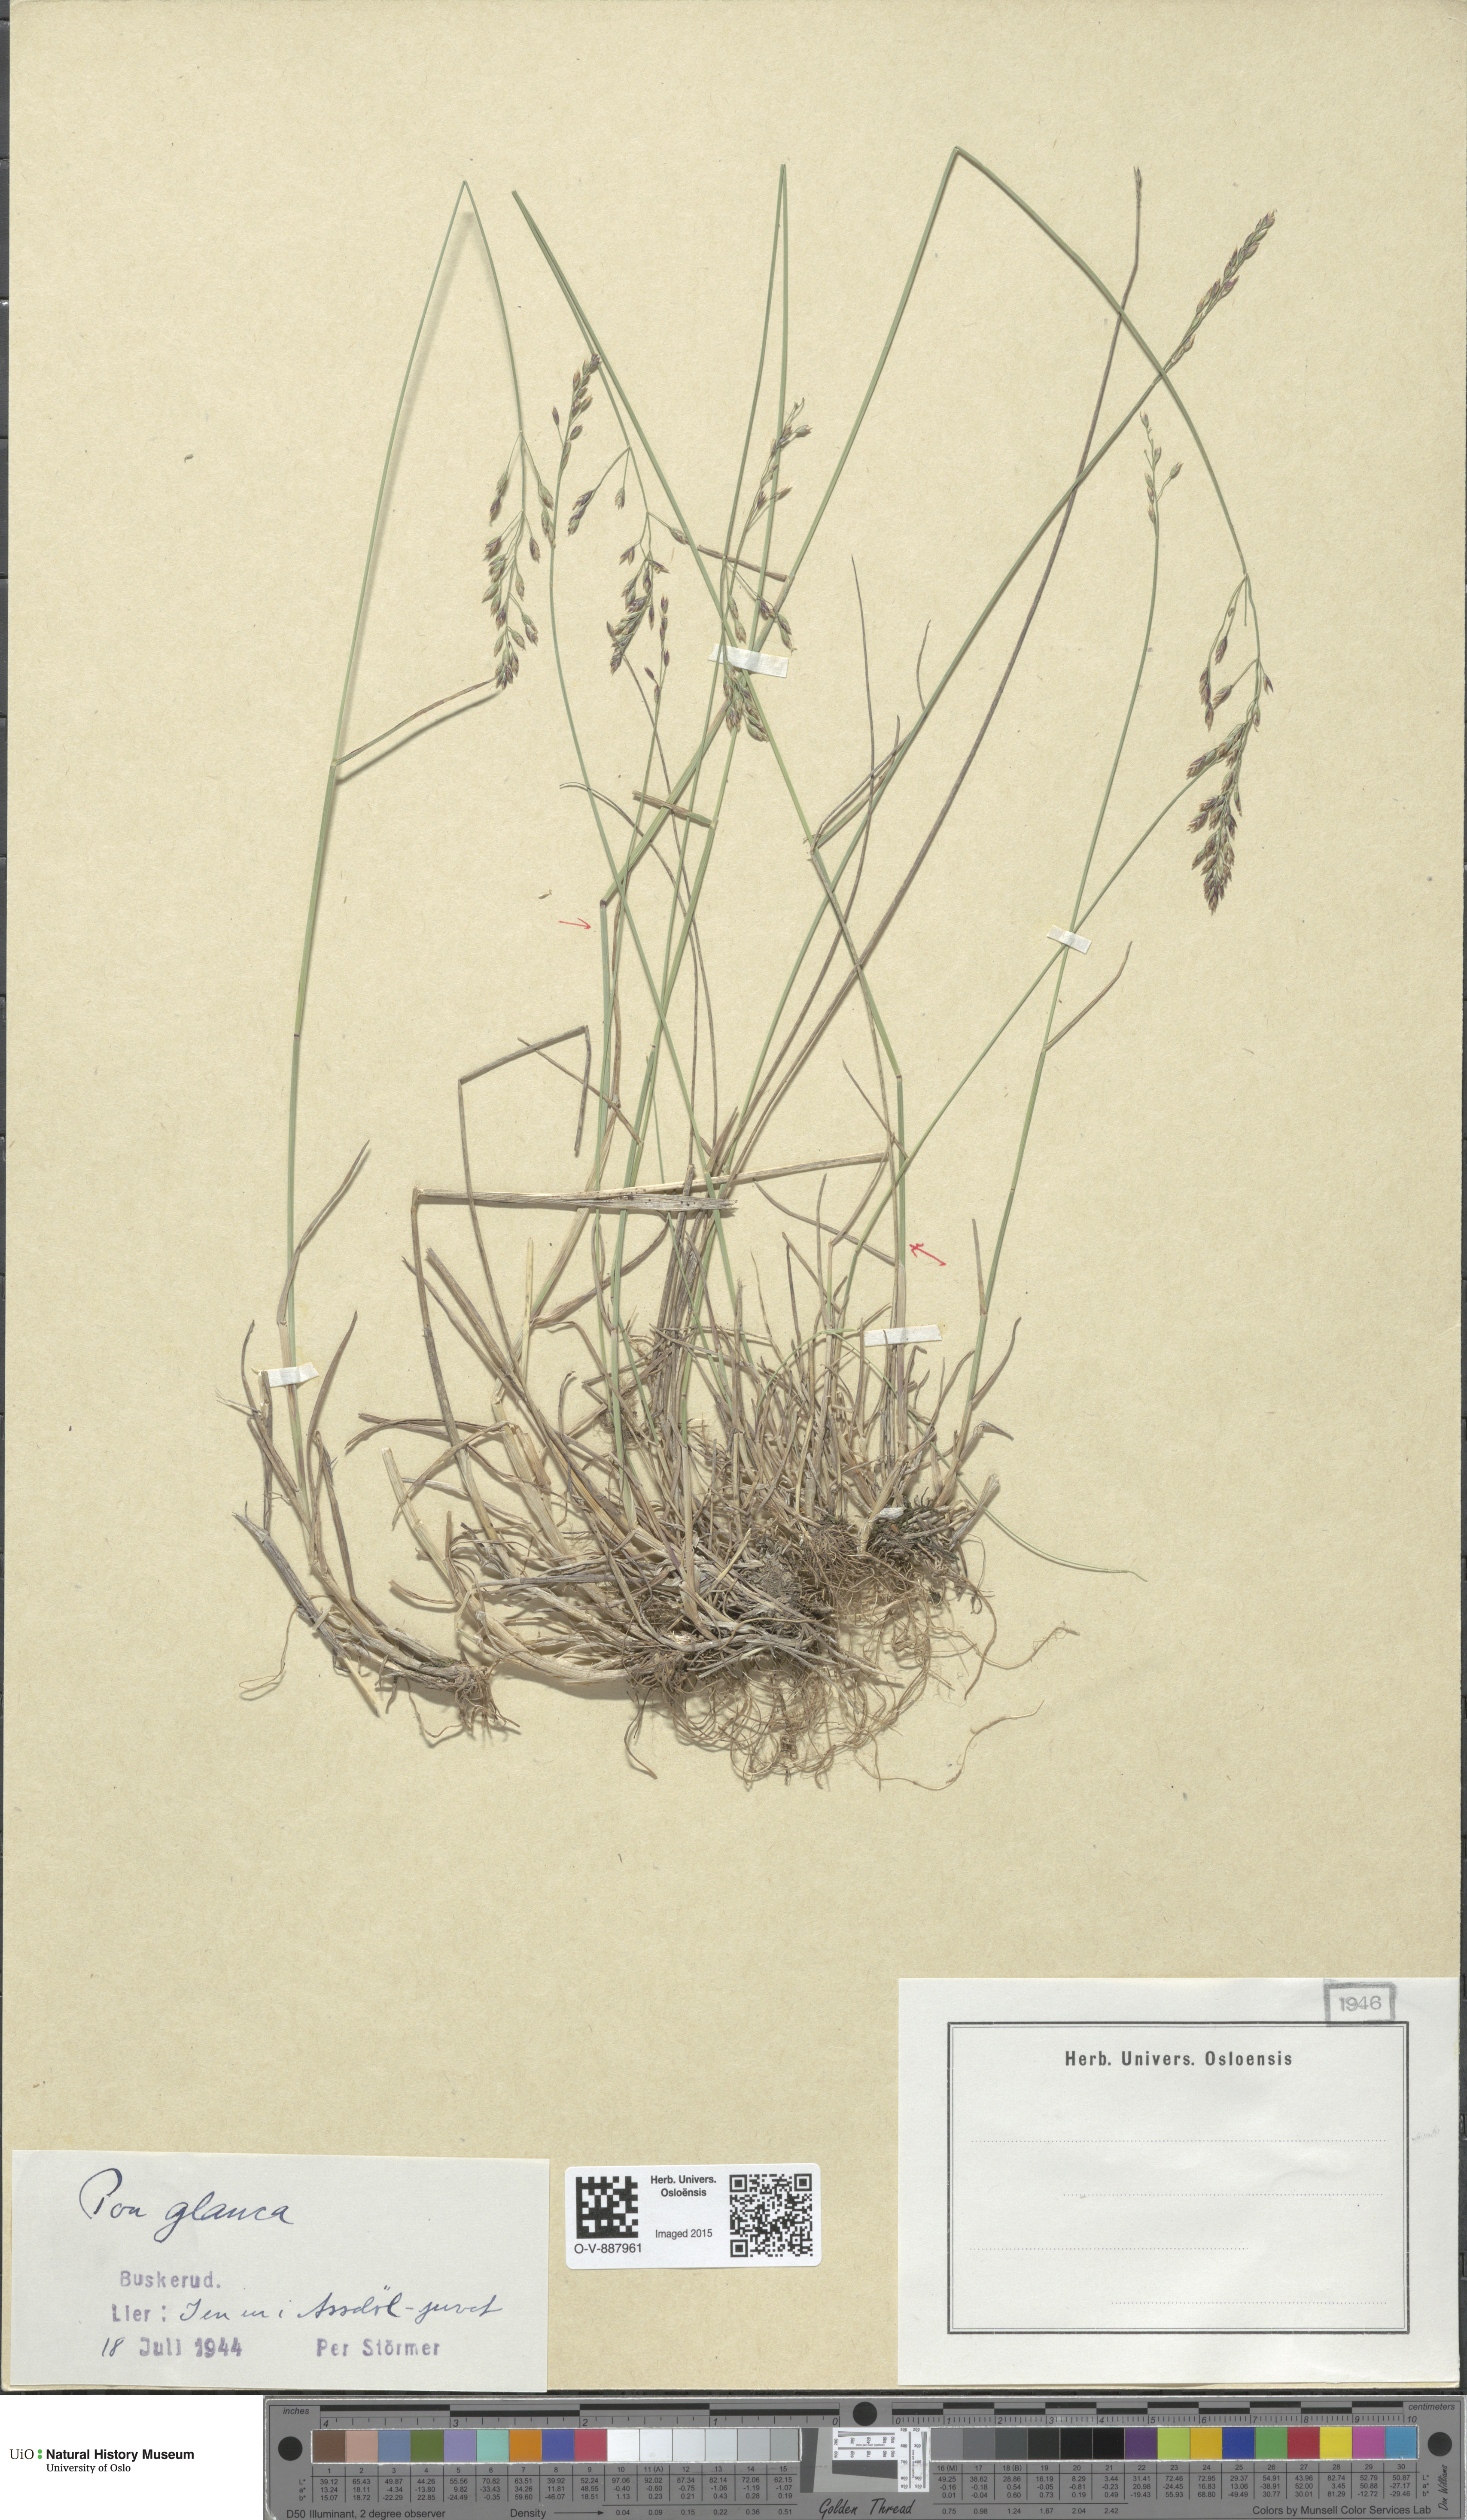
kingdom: Plantae
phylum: Tracheophyta
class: Liliopsida
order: Poales
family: Poaceae
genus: Poa
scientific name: Poa glauca
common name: Glaucous bluegrass
